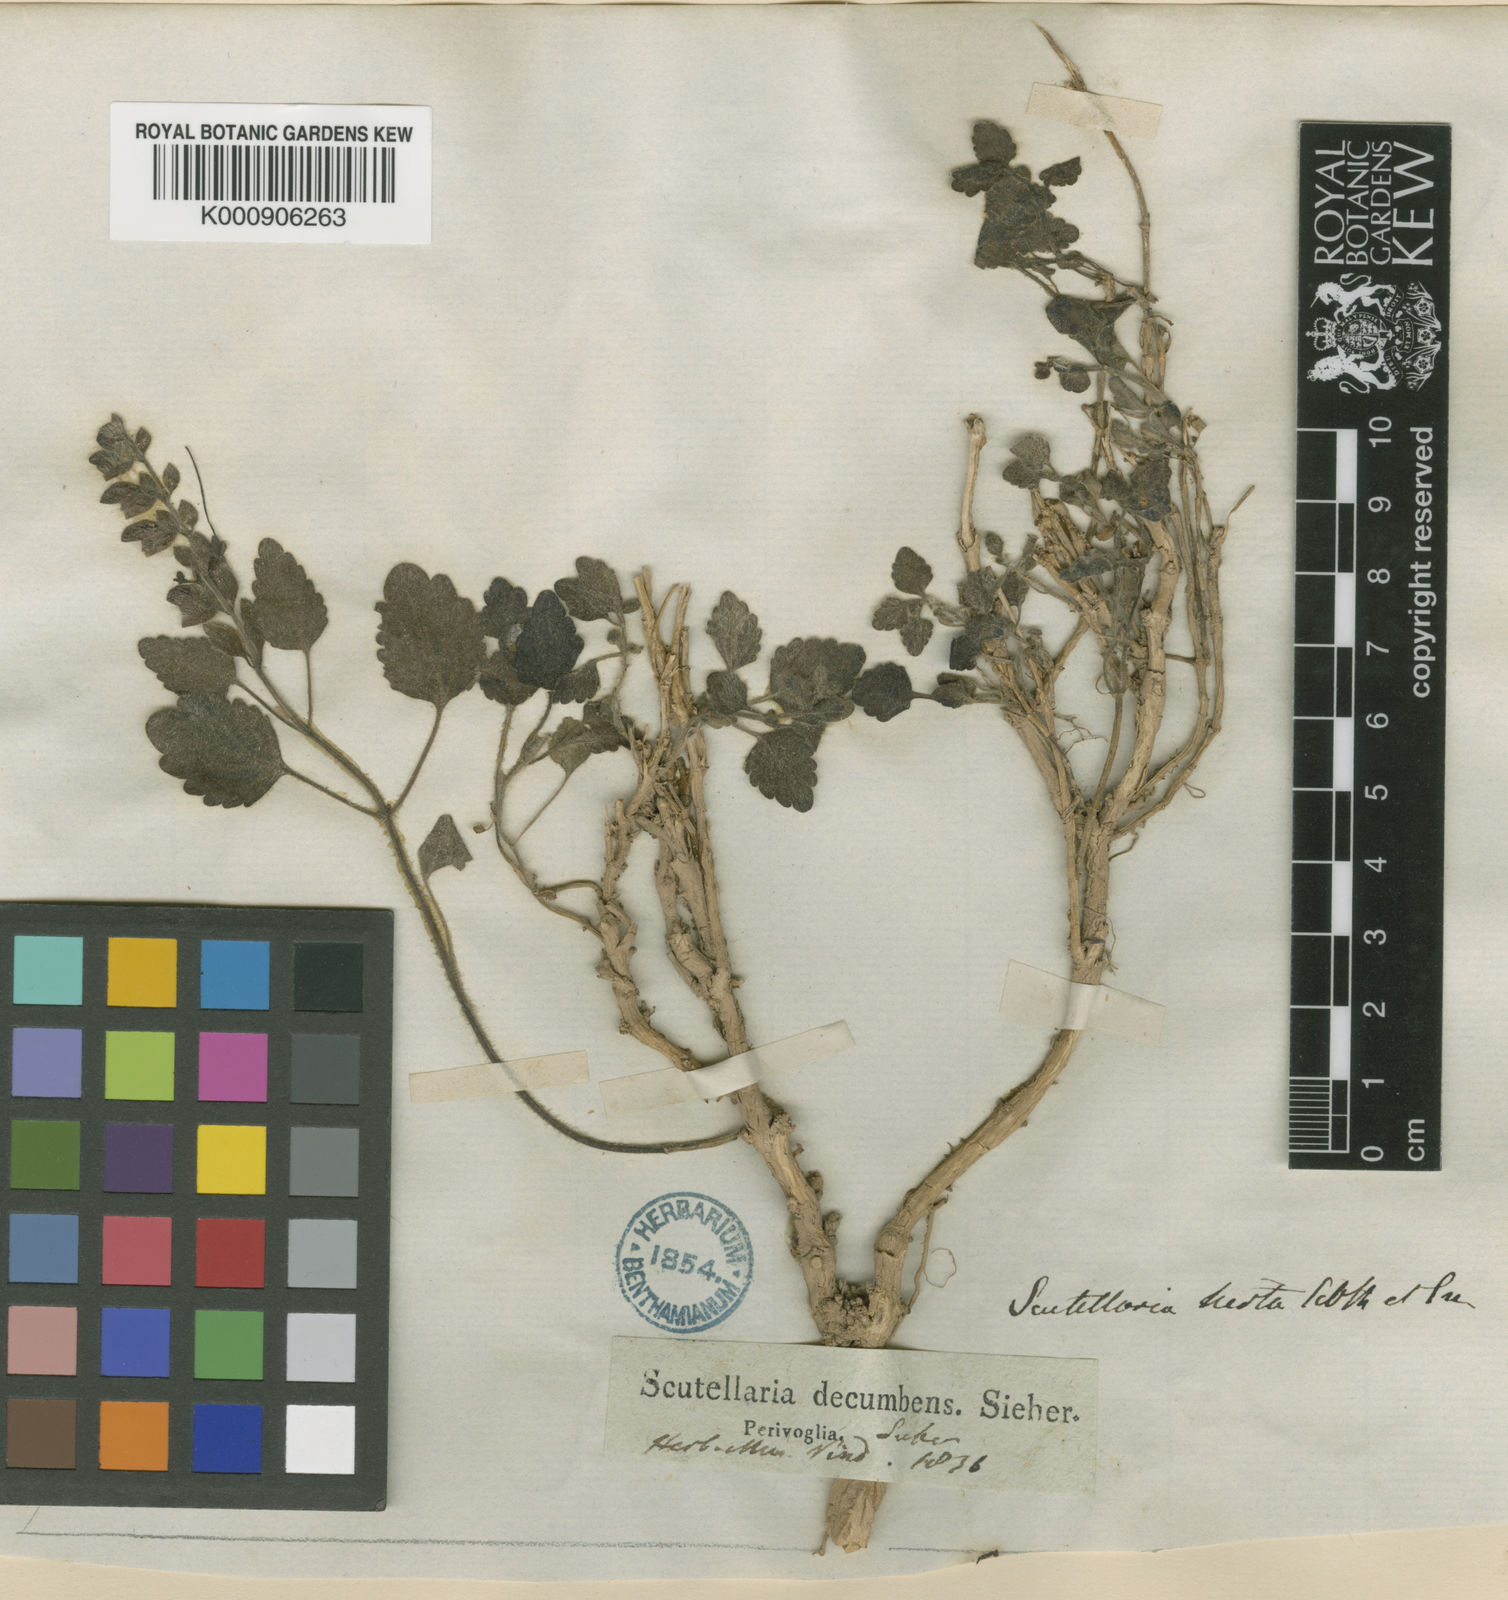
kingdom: Plantae
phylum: Tracheophyta
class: Magnoliopsida
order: Lamiales
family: Lamiaceae
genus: Scutellaria
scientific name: Scutellaria hirta
